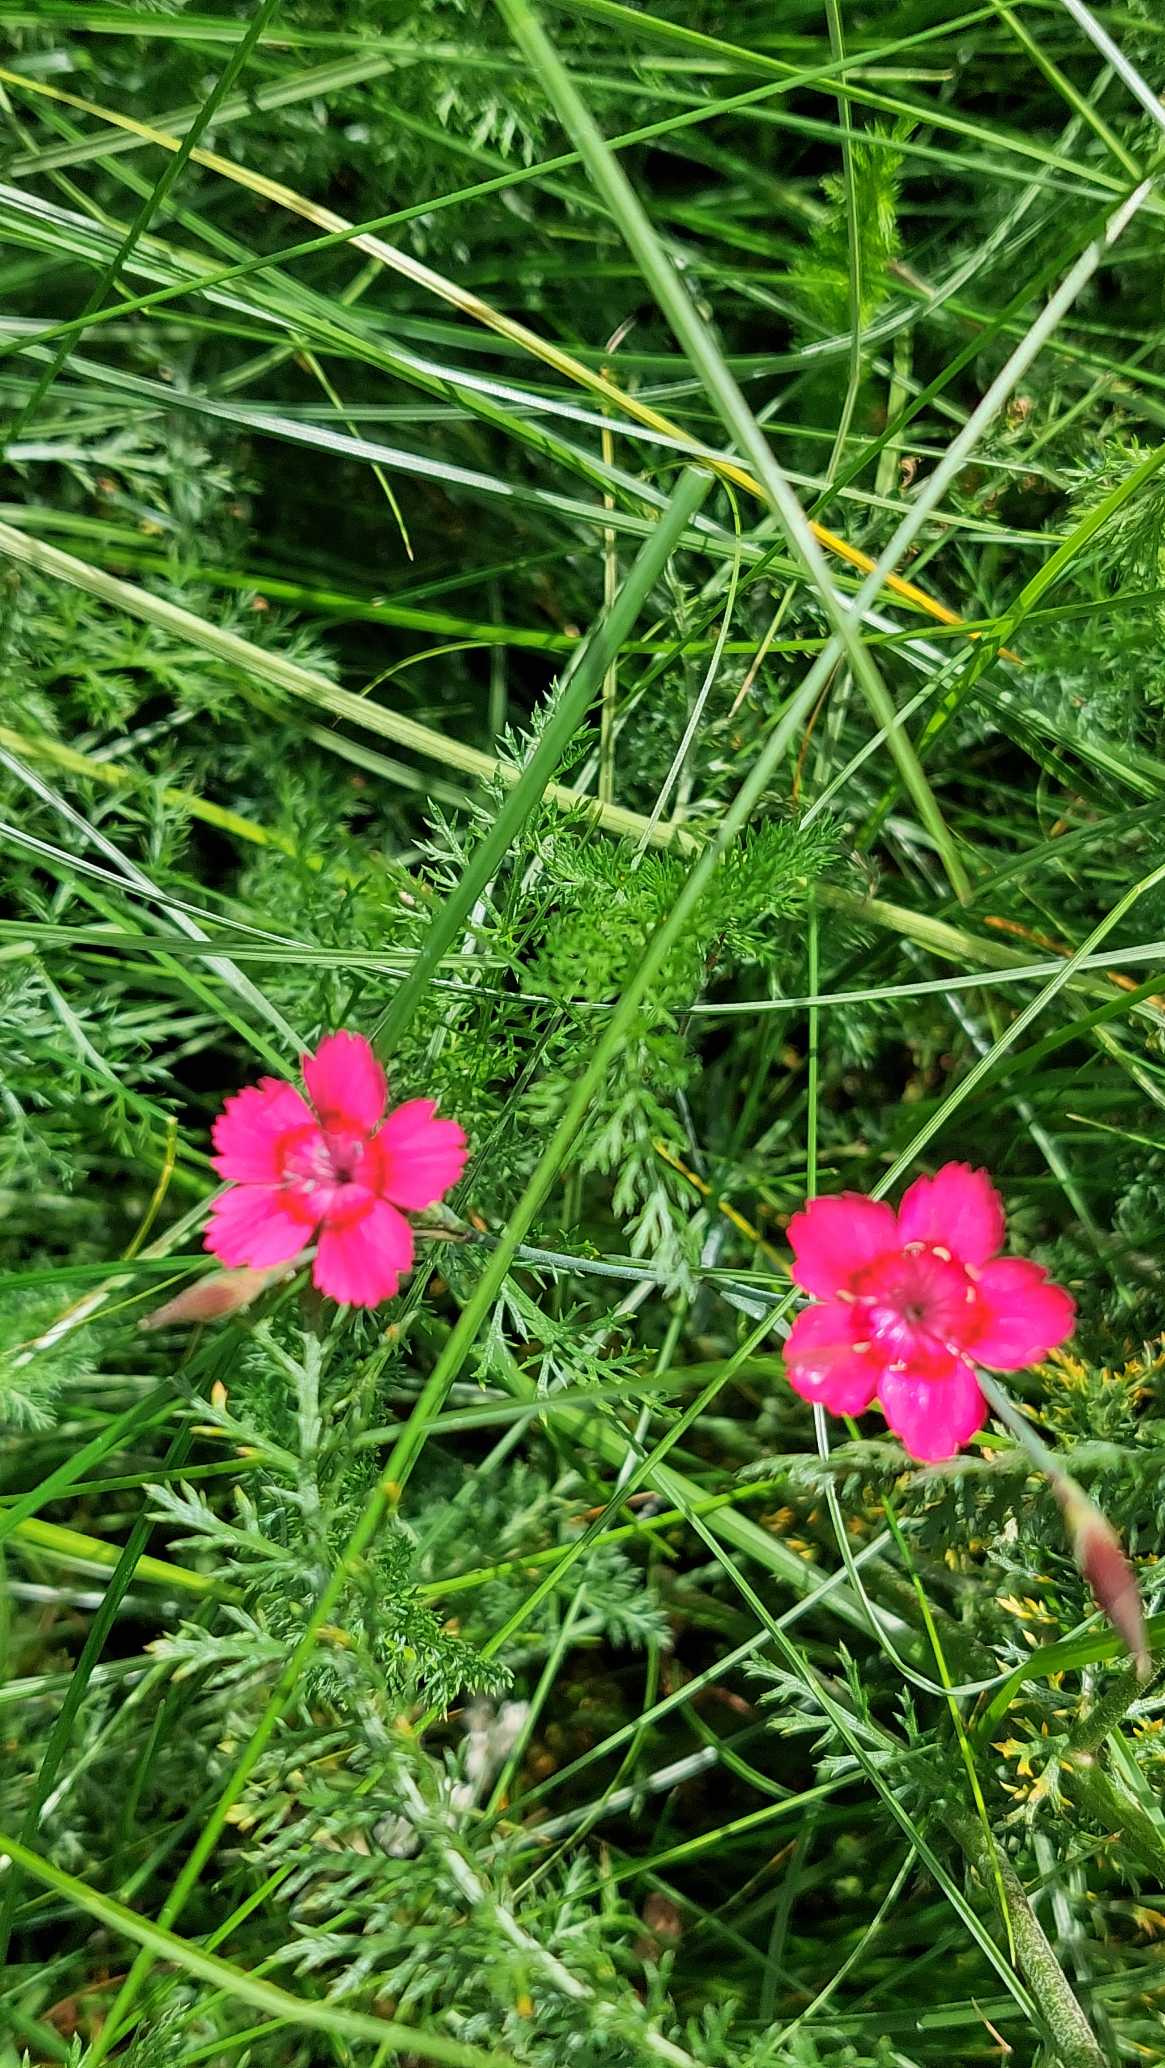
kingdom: Plantae
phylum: Tracheophyta
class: Magnoliopsida
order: Caryophyllales
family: Caryophyllaceae
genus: Dianthus
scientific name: Dianthus deltoides
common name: Bakke-nellike
